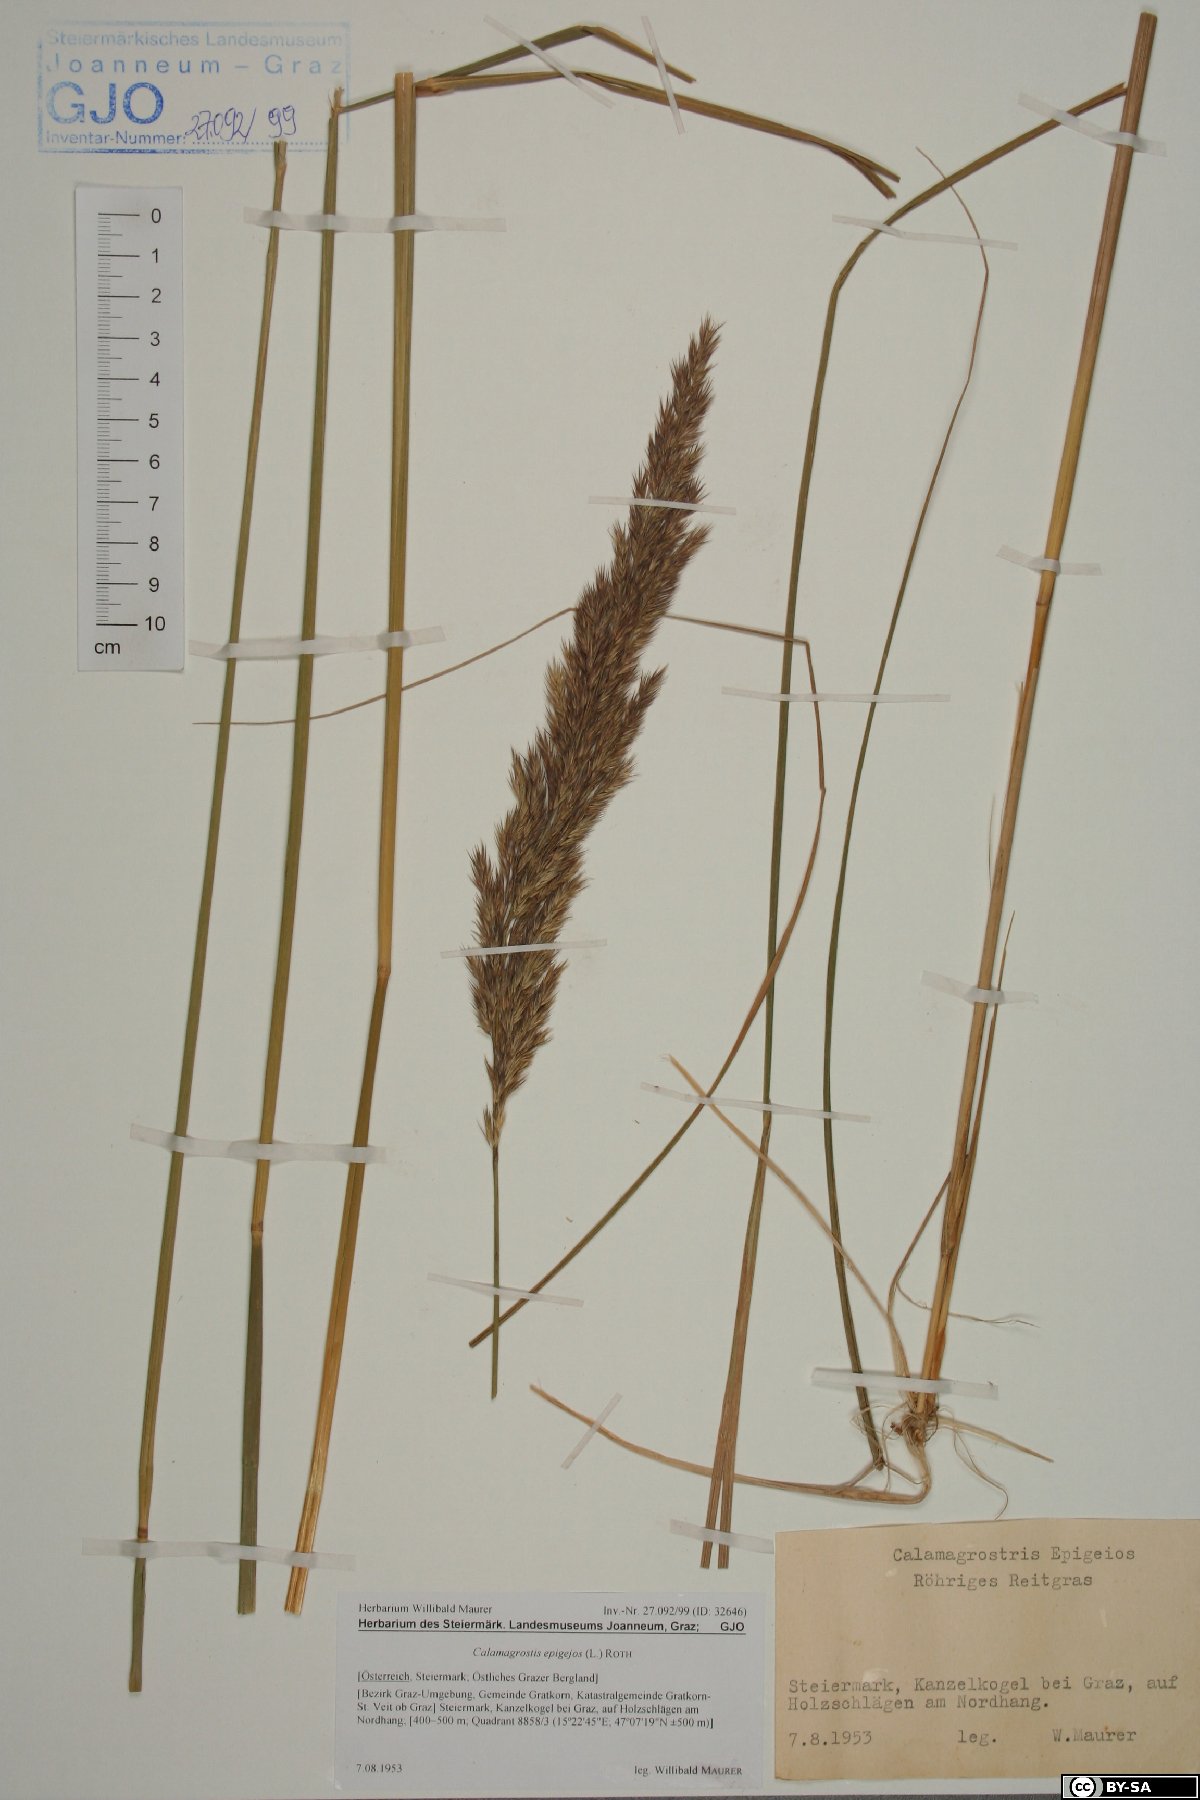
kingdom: Plantae
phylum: Tracheophyta
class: Liliopsida
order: Poales
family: Poaceae
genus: Calamagrostis
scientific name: Calamagrostis epigejos
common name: Wood small-reed
